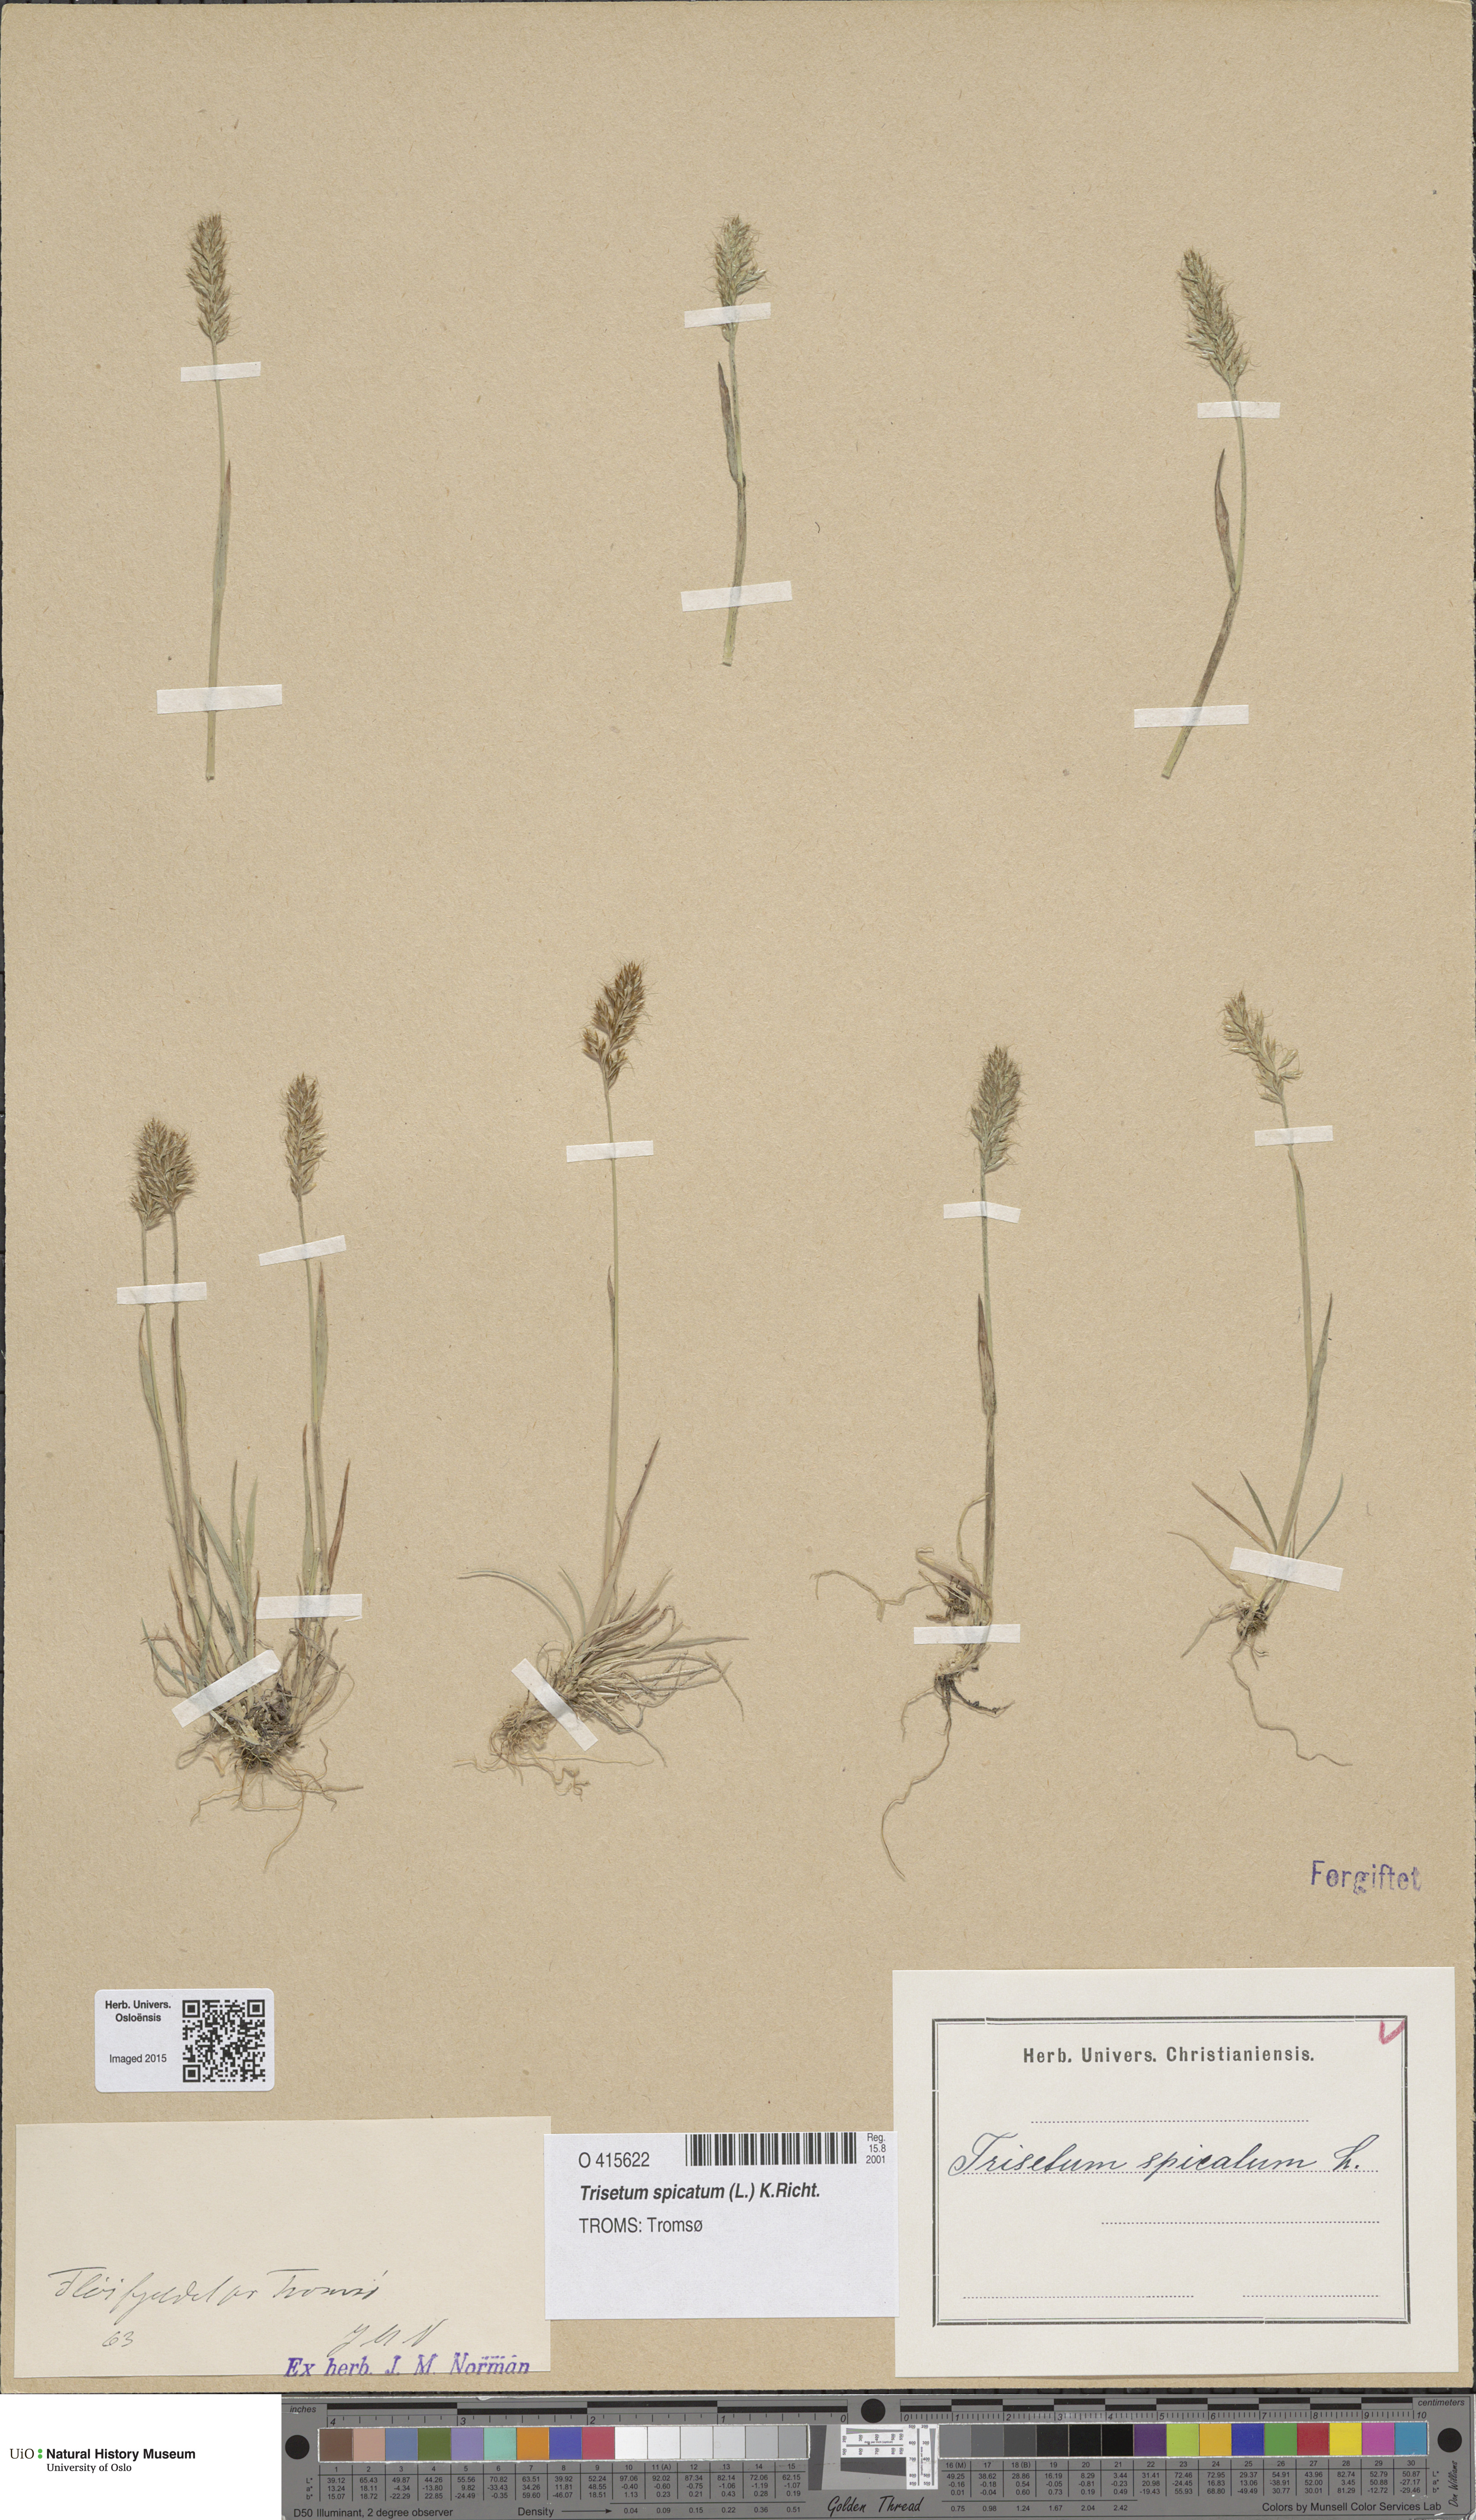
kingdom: Plantae
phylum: Tracheophyta
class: Liliopsida
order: Poales
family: Poaceae
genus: Koeleria
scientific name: Koeleria spicata
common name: Mountain trisetum
